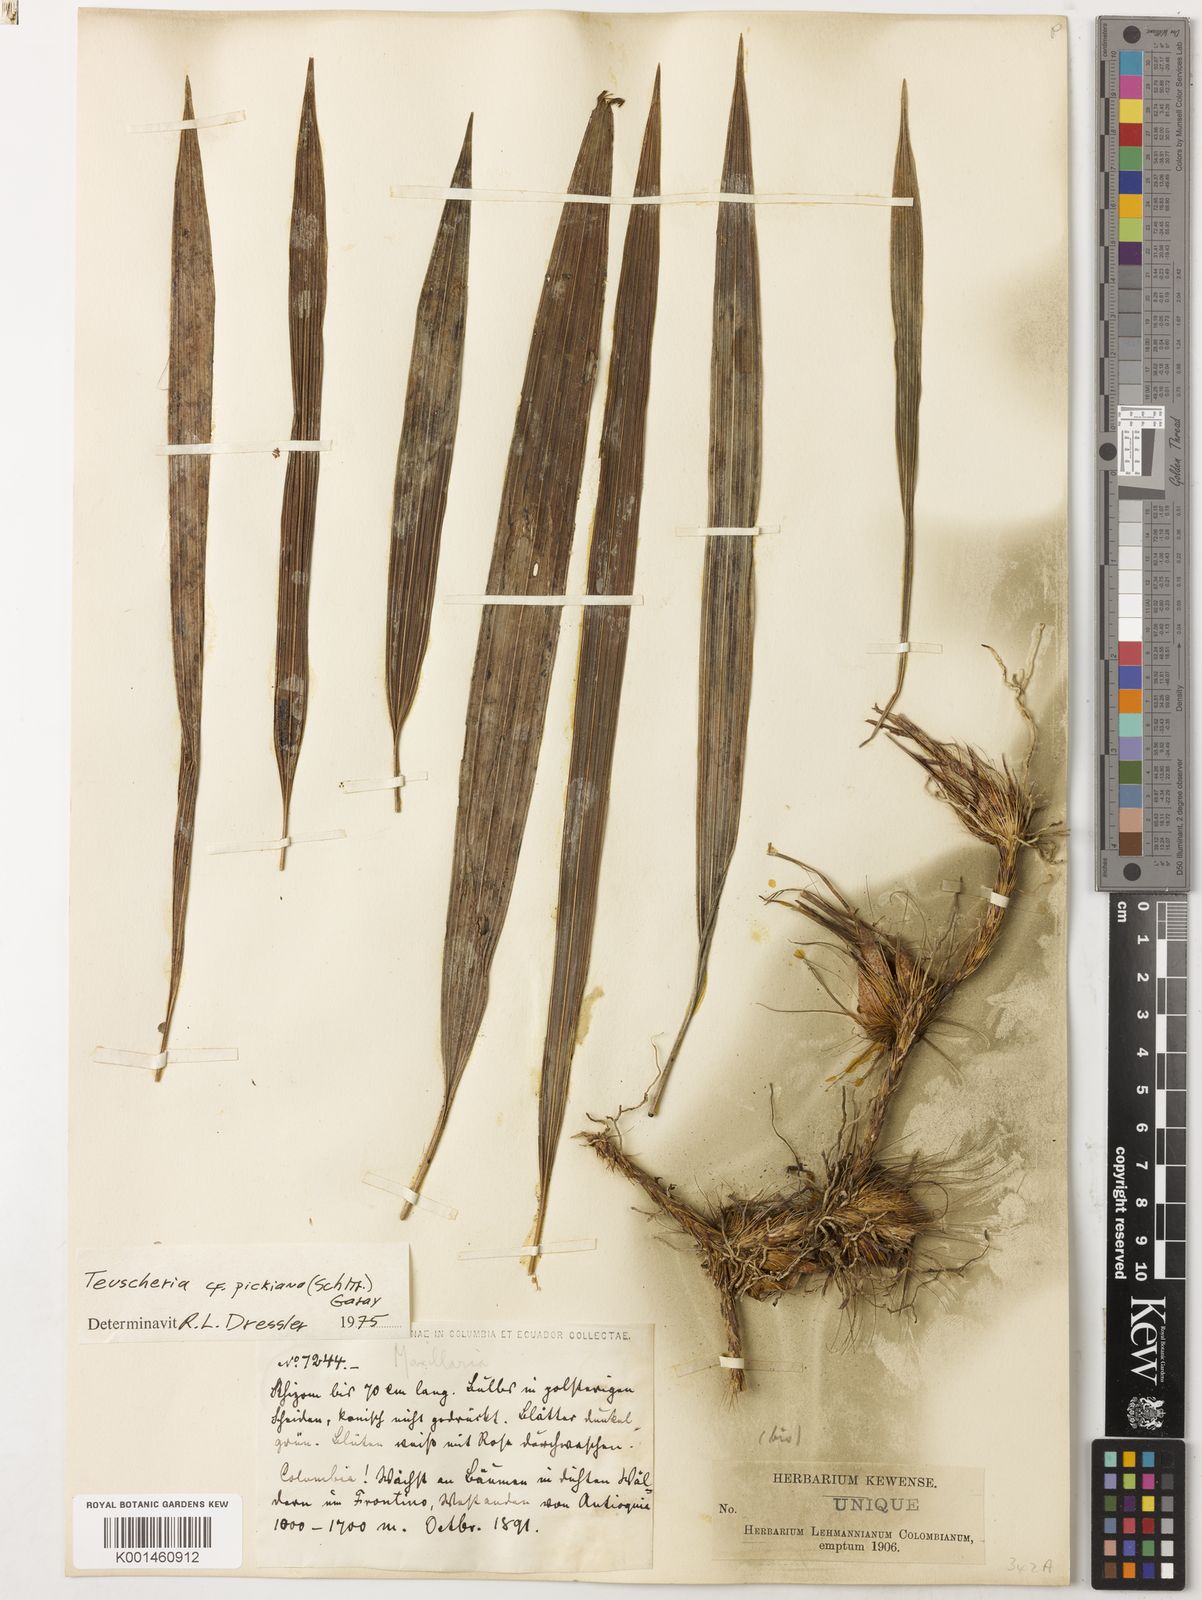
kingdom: Plantae
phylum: Tracheophyta
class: Liliopsida
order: Asparagales
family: Orchidaceae
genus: Teuscheria
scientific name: Teuscheria elegans
